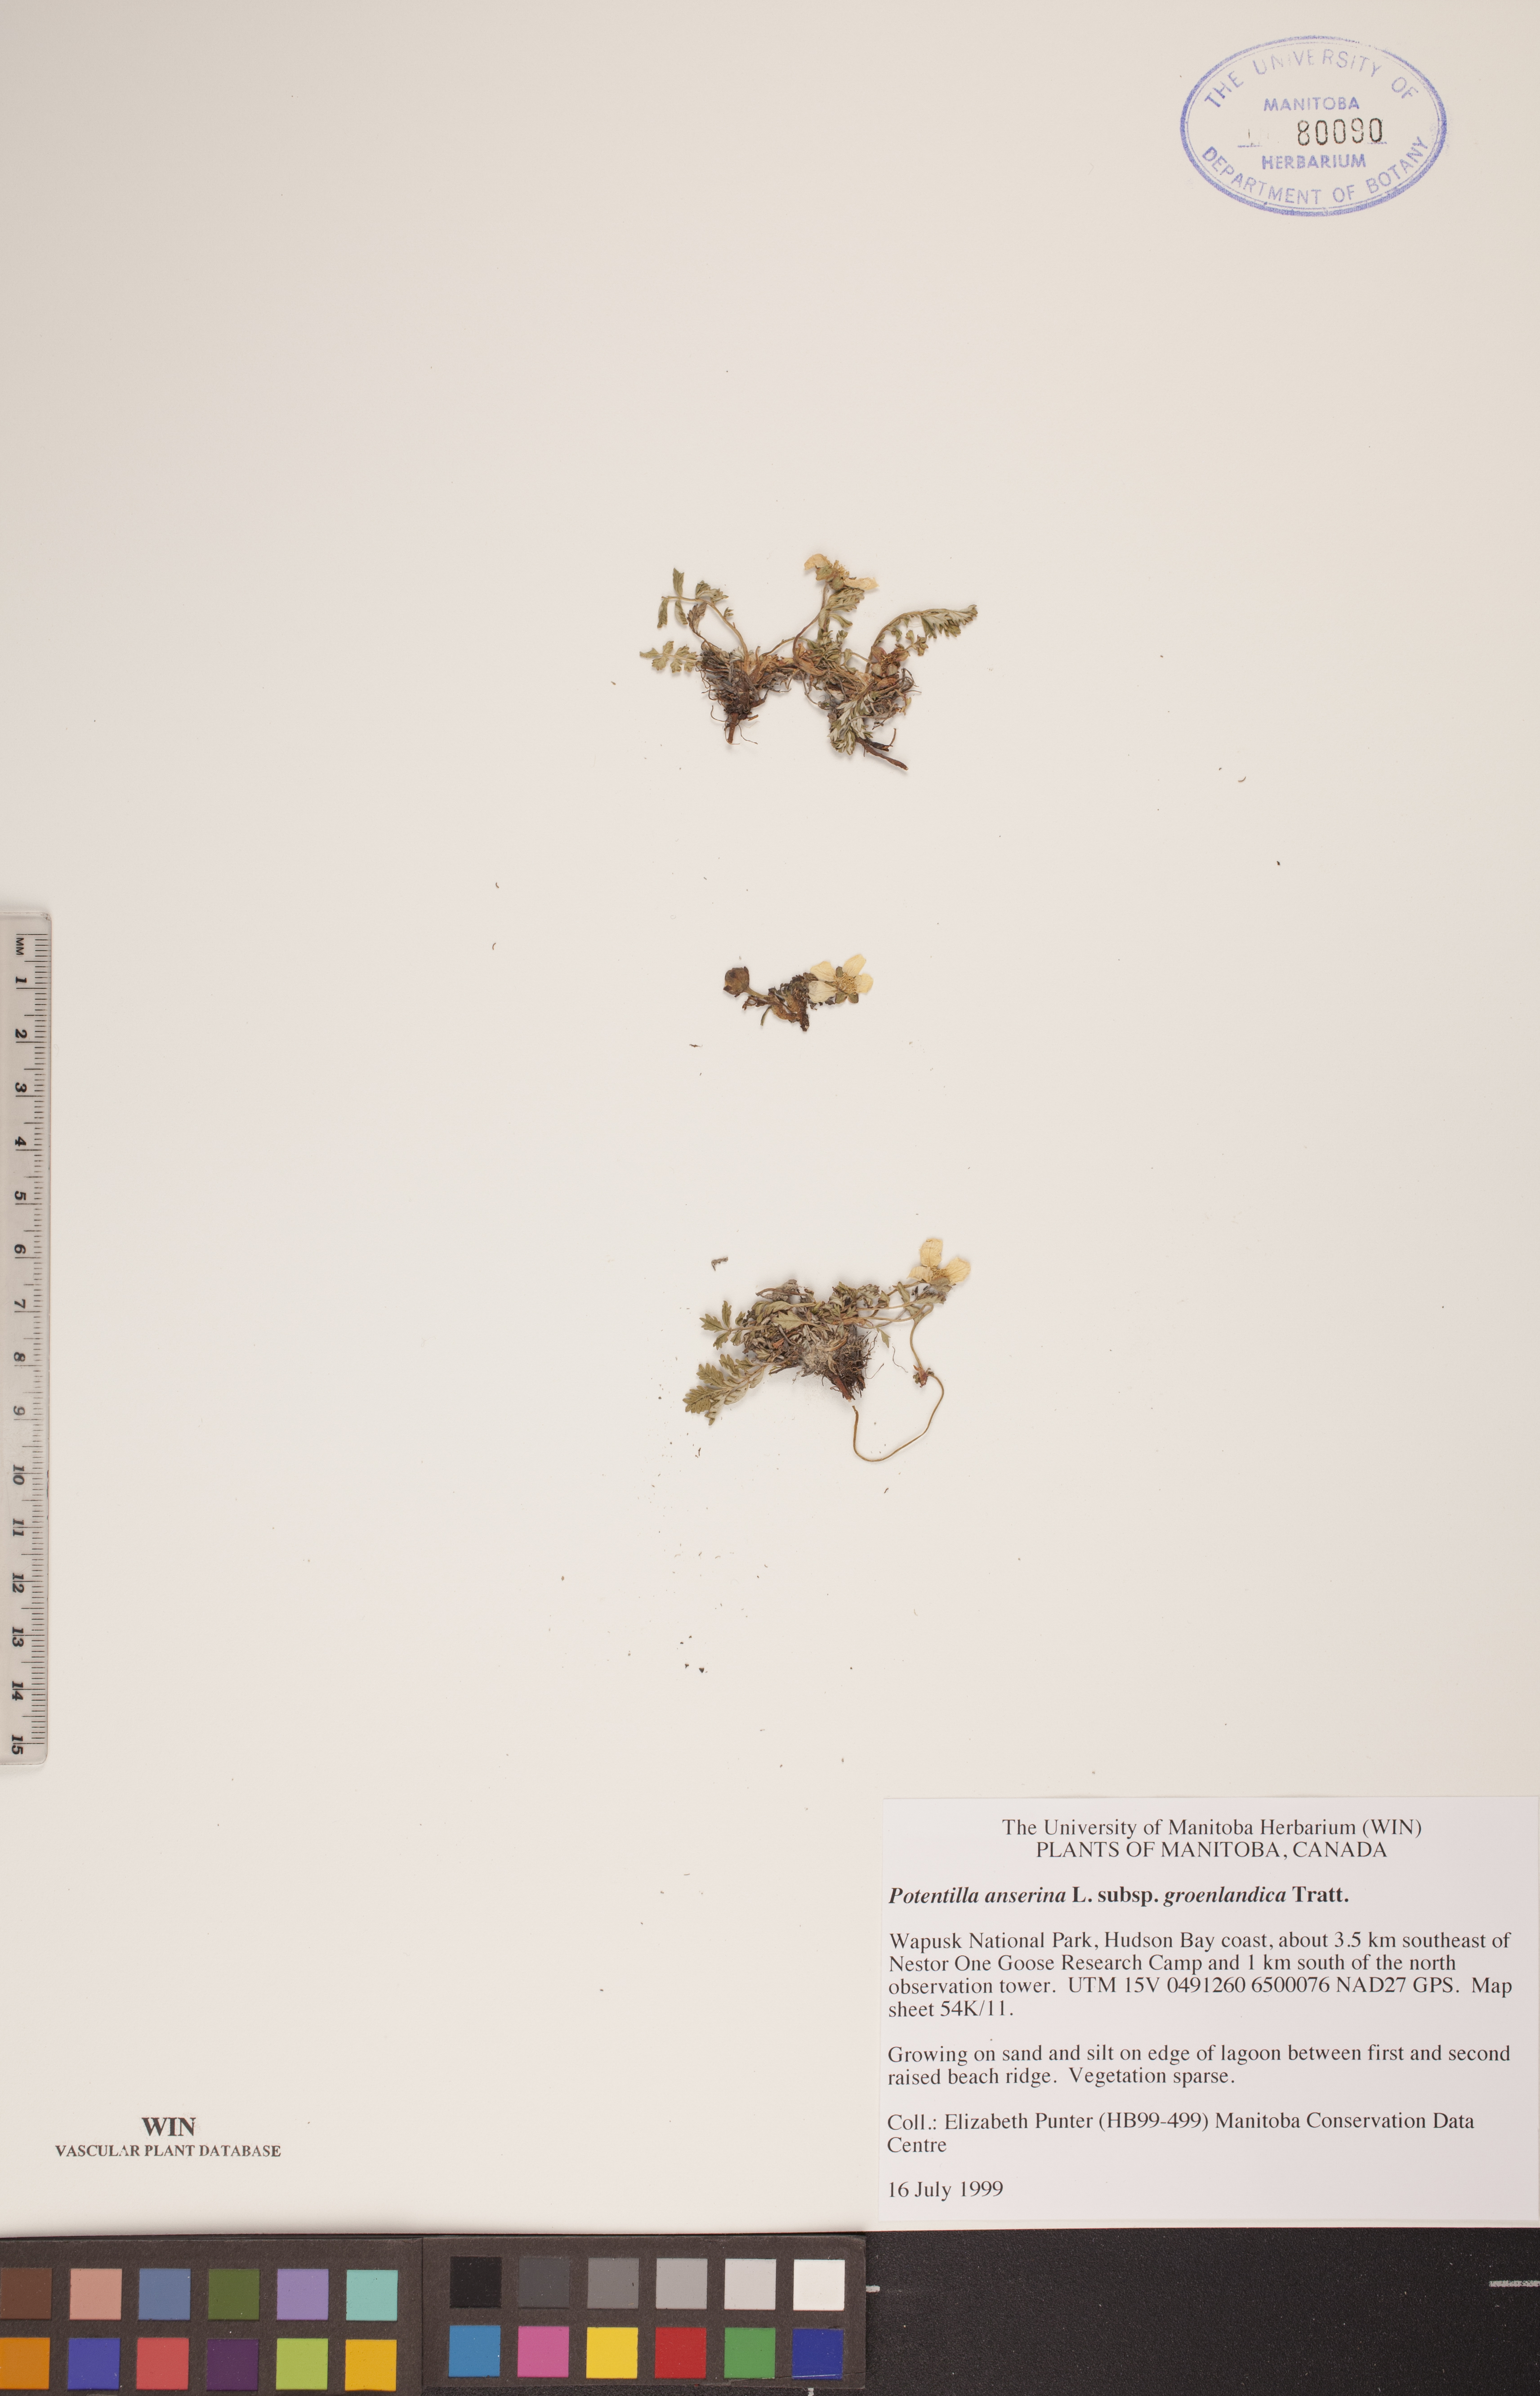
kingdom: Plantae
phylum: Tracheophyta
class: Magnoliopsida
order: Rosales
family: Rosaceae
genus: Argentina
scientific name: Argentina anserina
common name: Common silverweed
